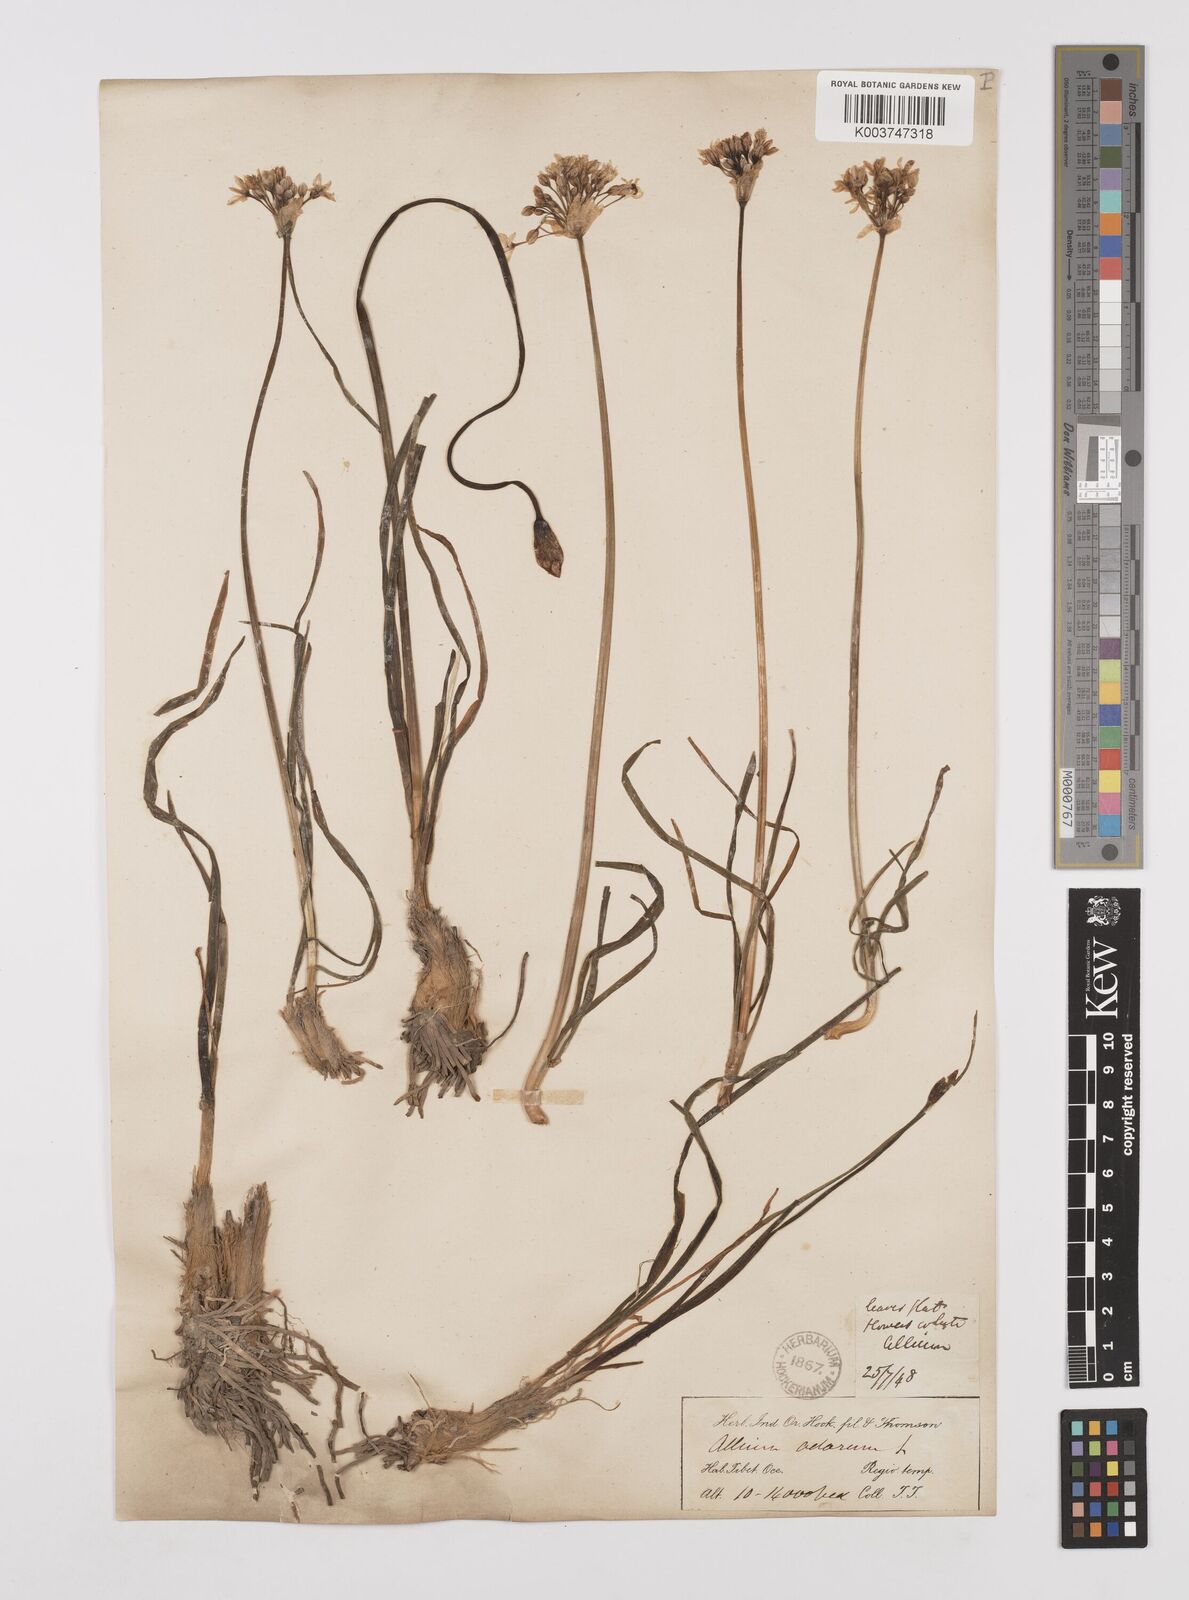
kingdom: Plantae
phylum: Tracheophyta
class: Liliopsida
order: Asparagales
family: Amaryllidaceae
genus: Allium
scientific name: Allium tuberosum
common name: Chinese chives
